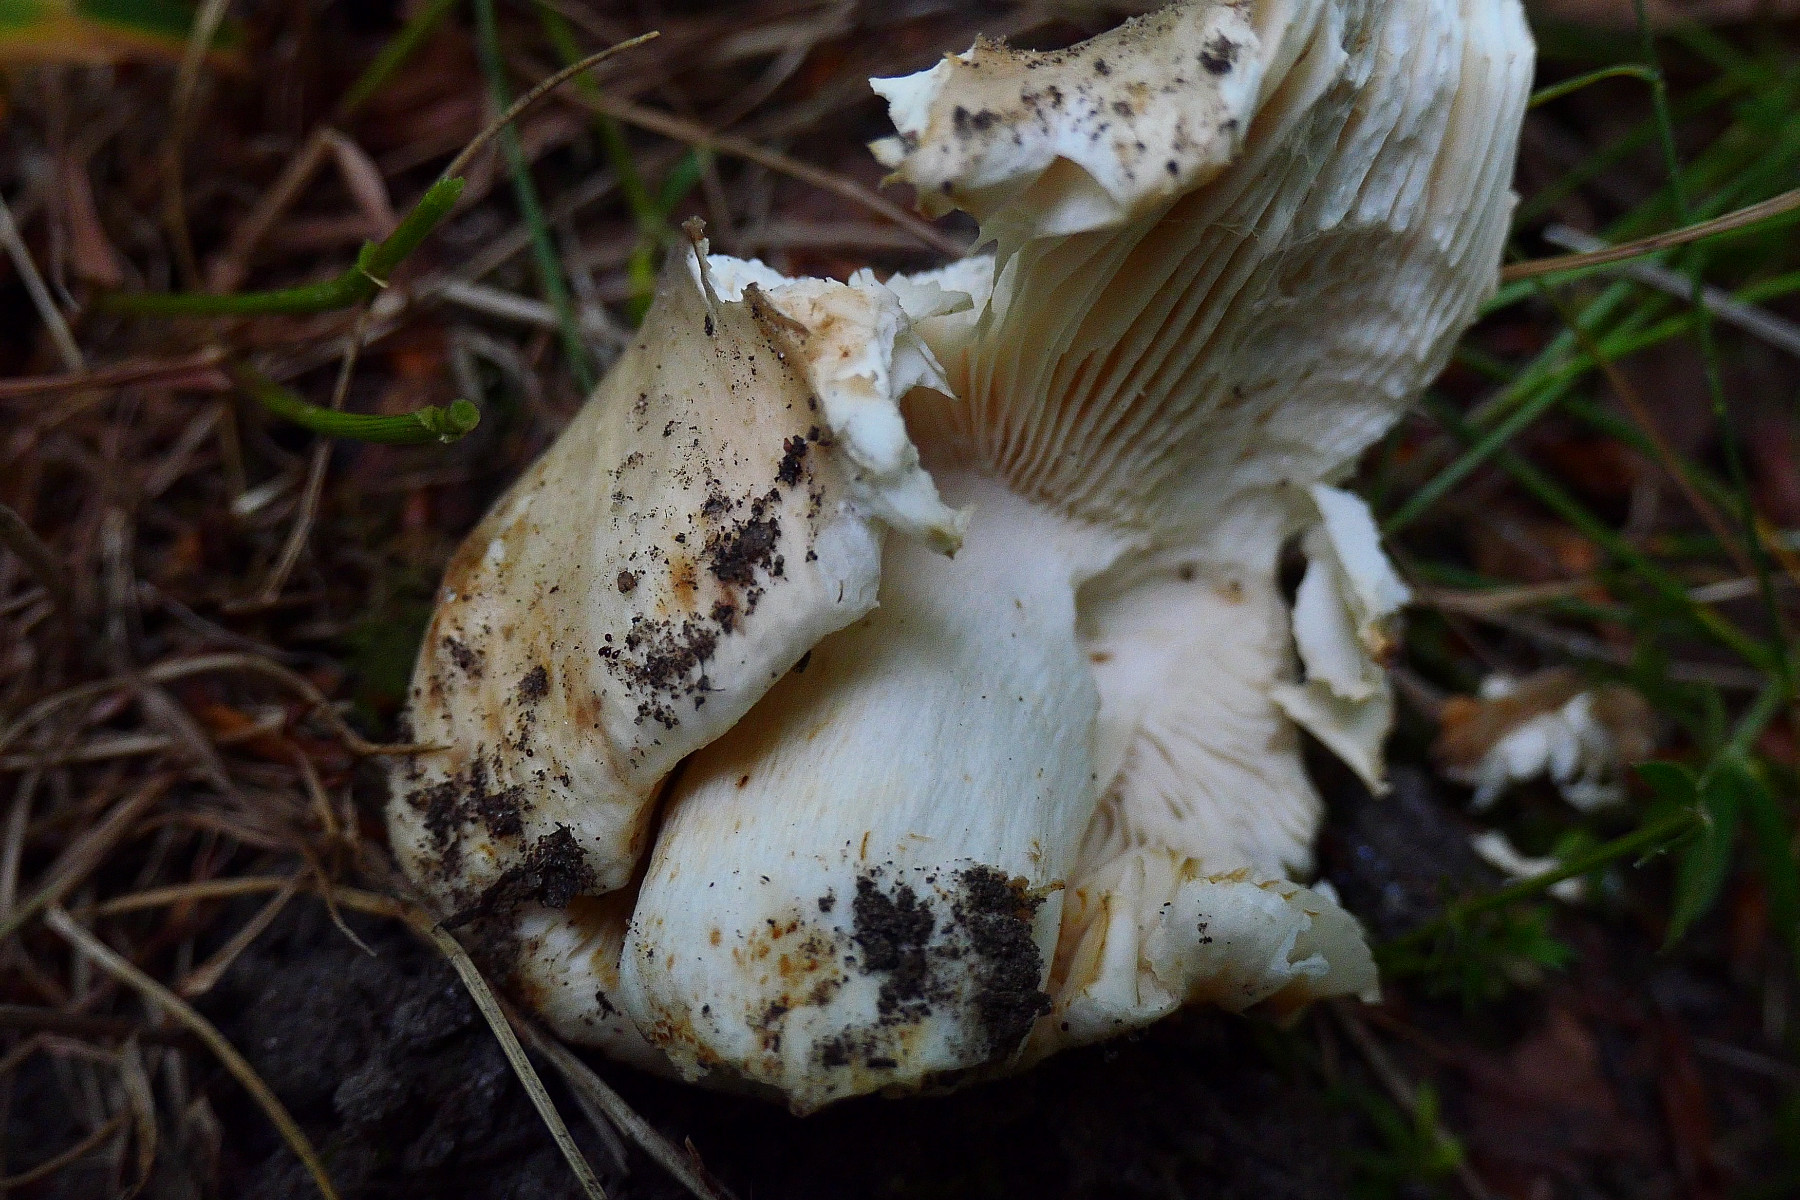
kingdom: Fungi
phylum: Basidiomycota
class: Agaricomycetes
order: Russulales
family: Russulaceae
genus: Russula
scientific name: Russula cyanoxantha
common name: broget skørhat
